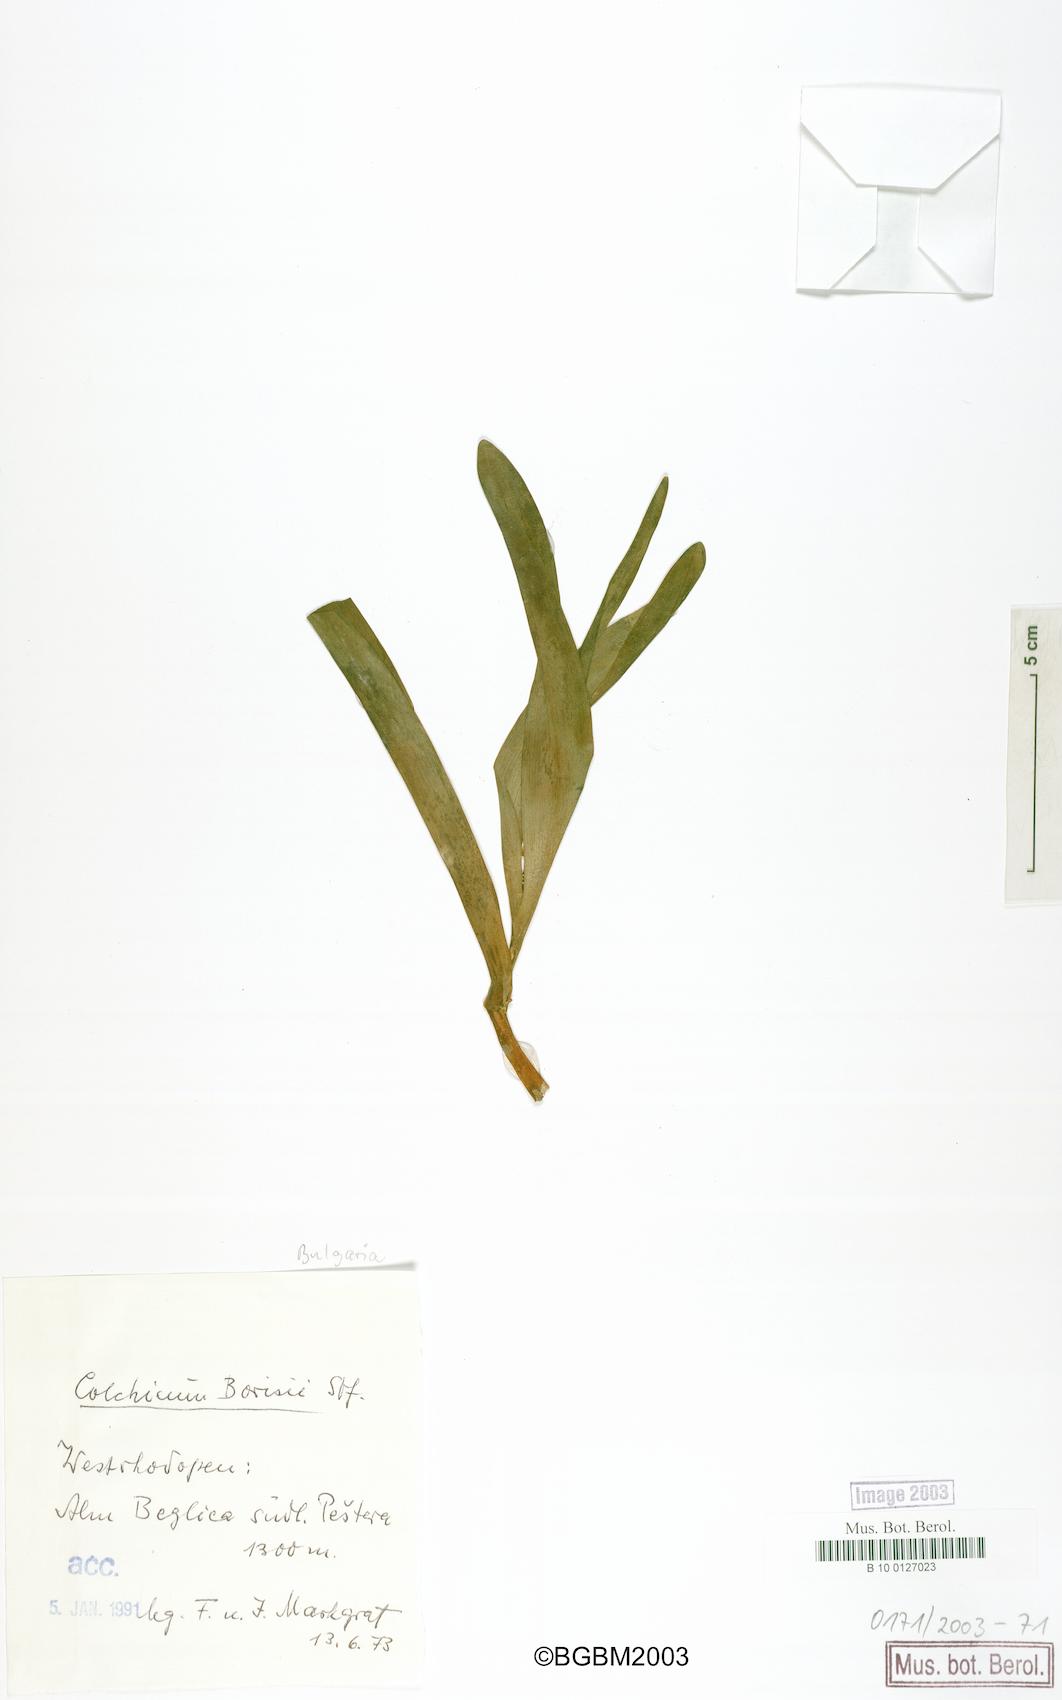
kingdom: Plantae
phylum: Tracheophyta
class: Liliopsida
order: Liliales
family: Colchicaceae
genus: Colchicum
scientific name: Colchicum autumnale
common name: Autumn crocus
